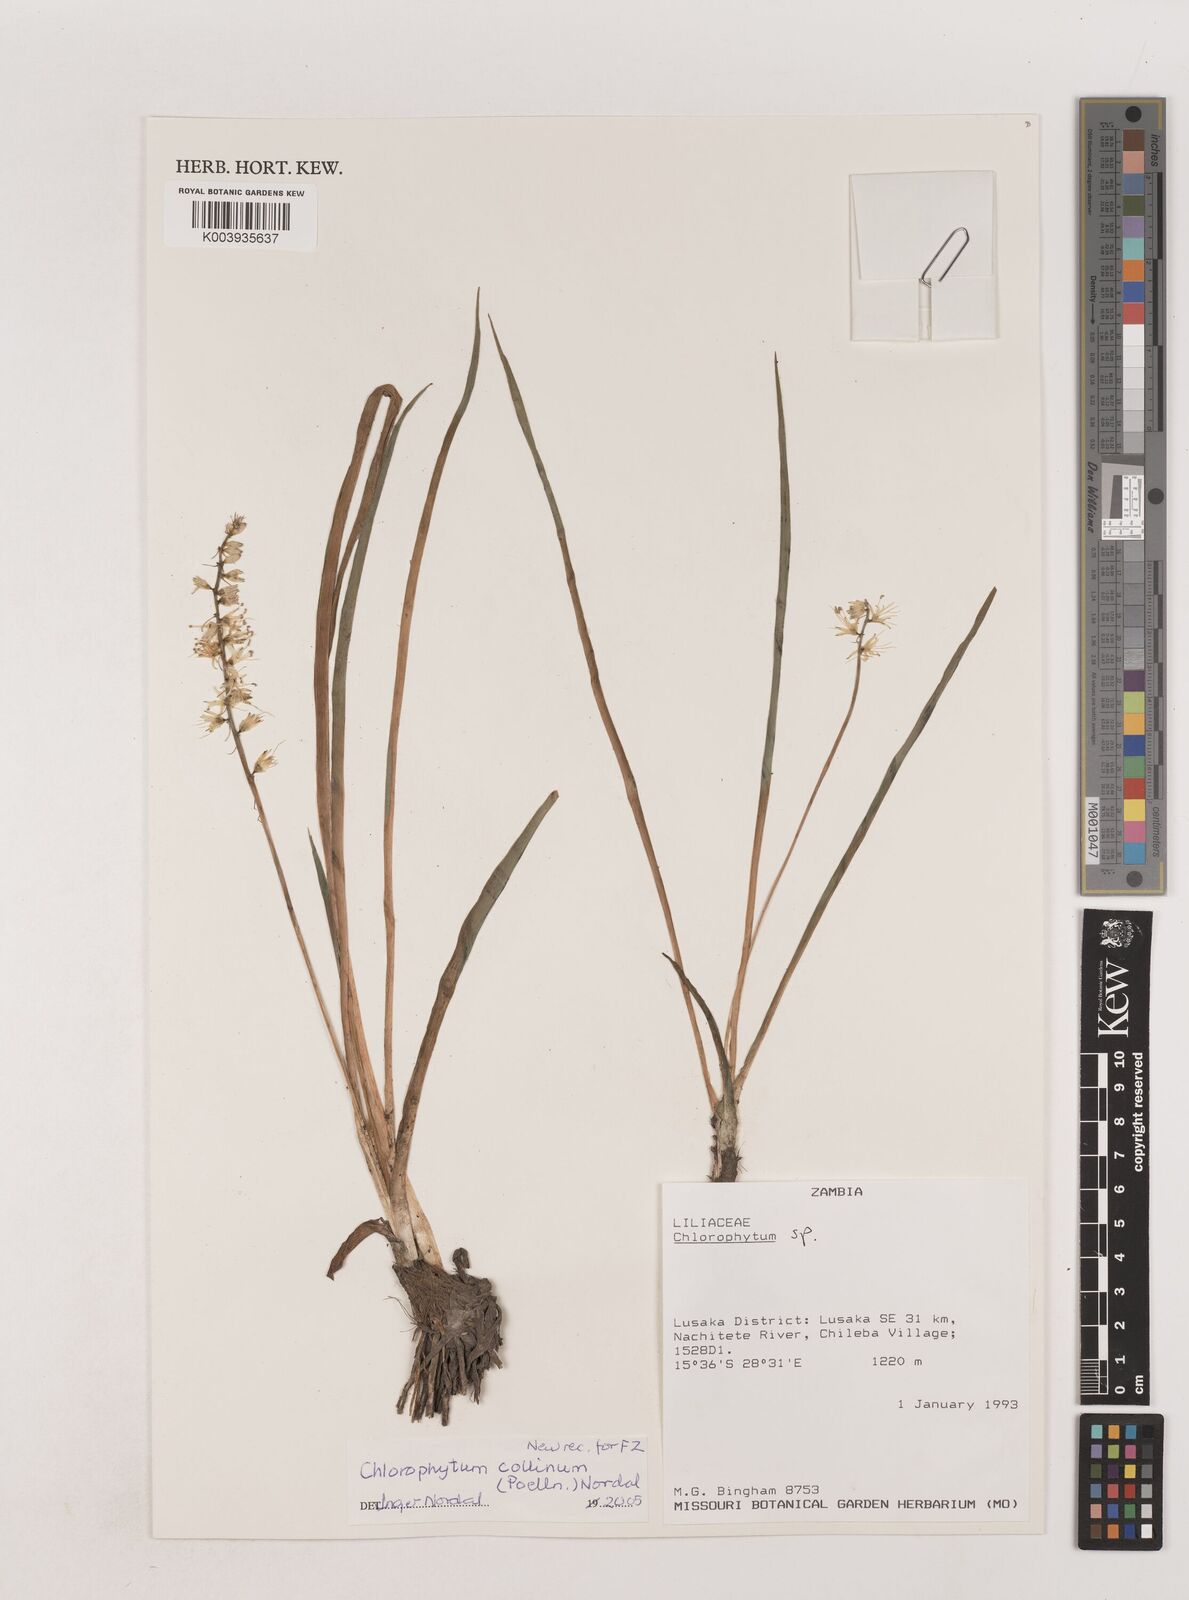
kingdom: Plantae
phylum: Tracheophyta
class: Liliopsida
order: Asparagales
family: Asparagaceae
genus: Chlorophytum
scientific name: Chlorophytum collinum
